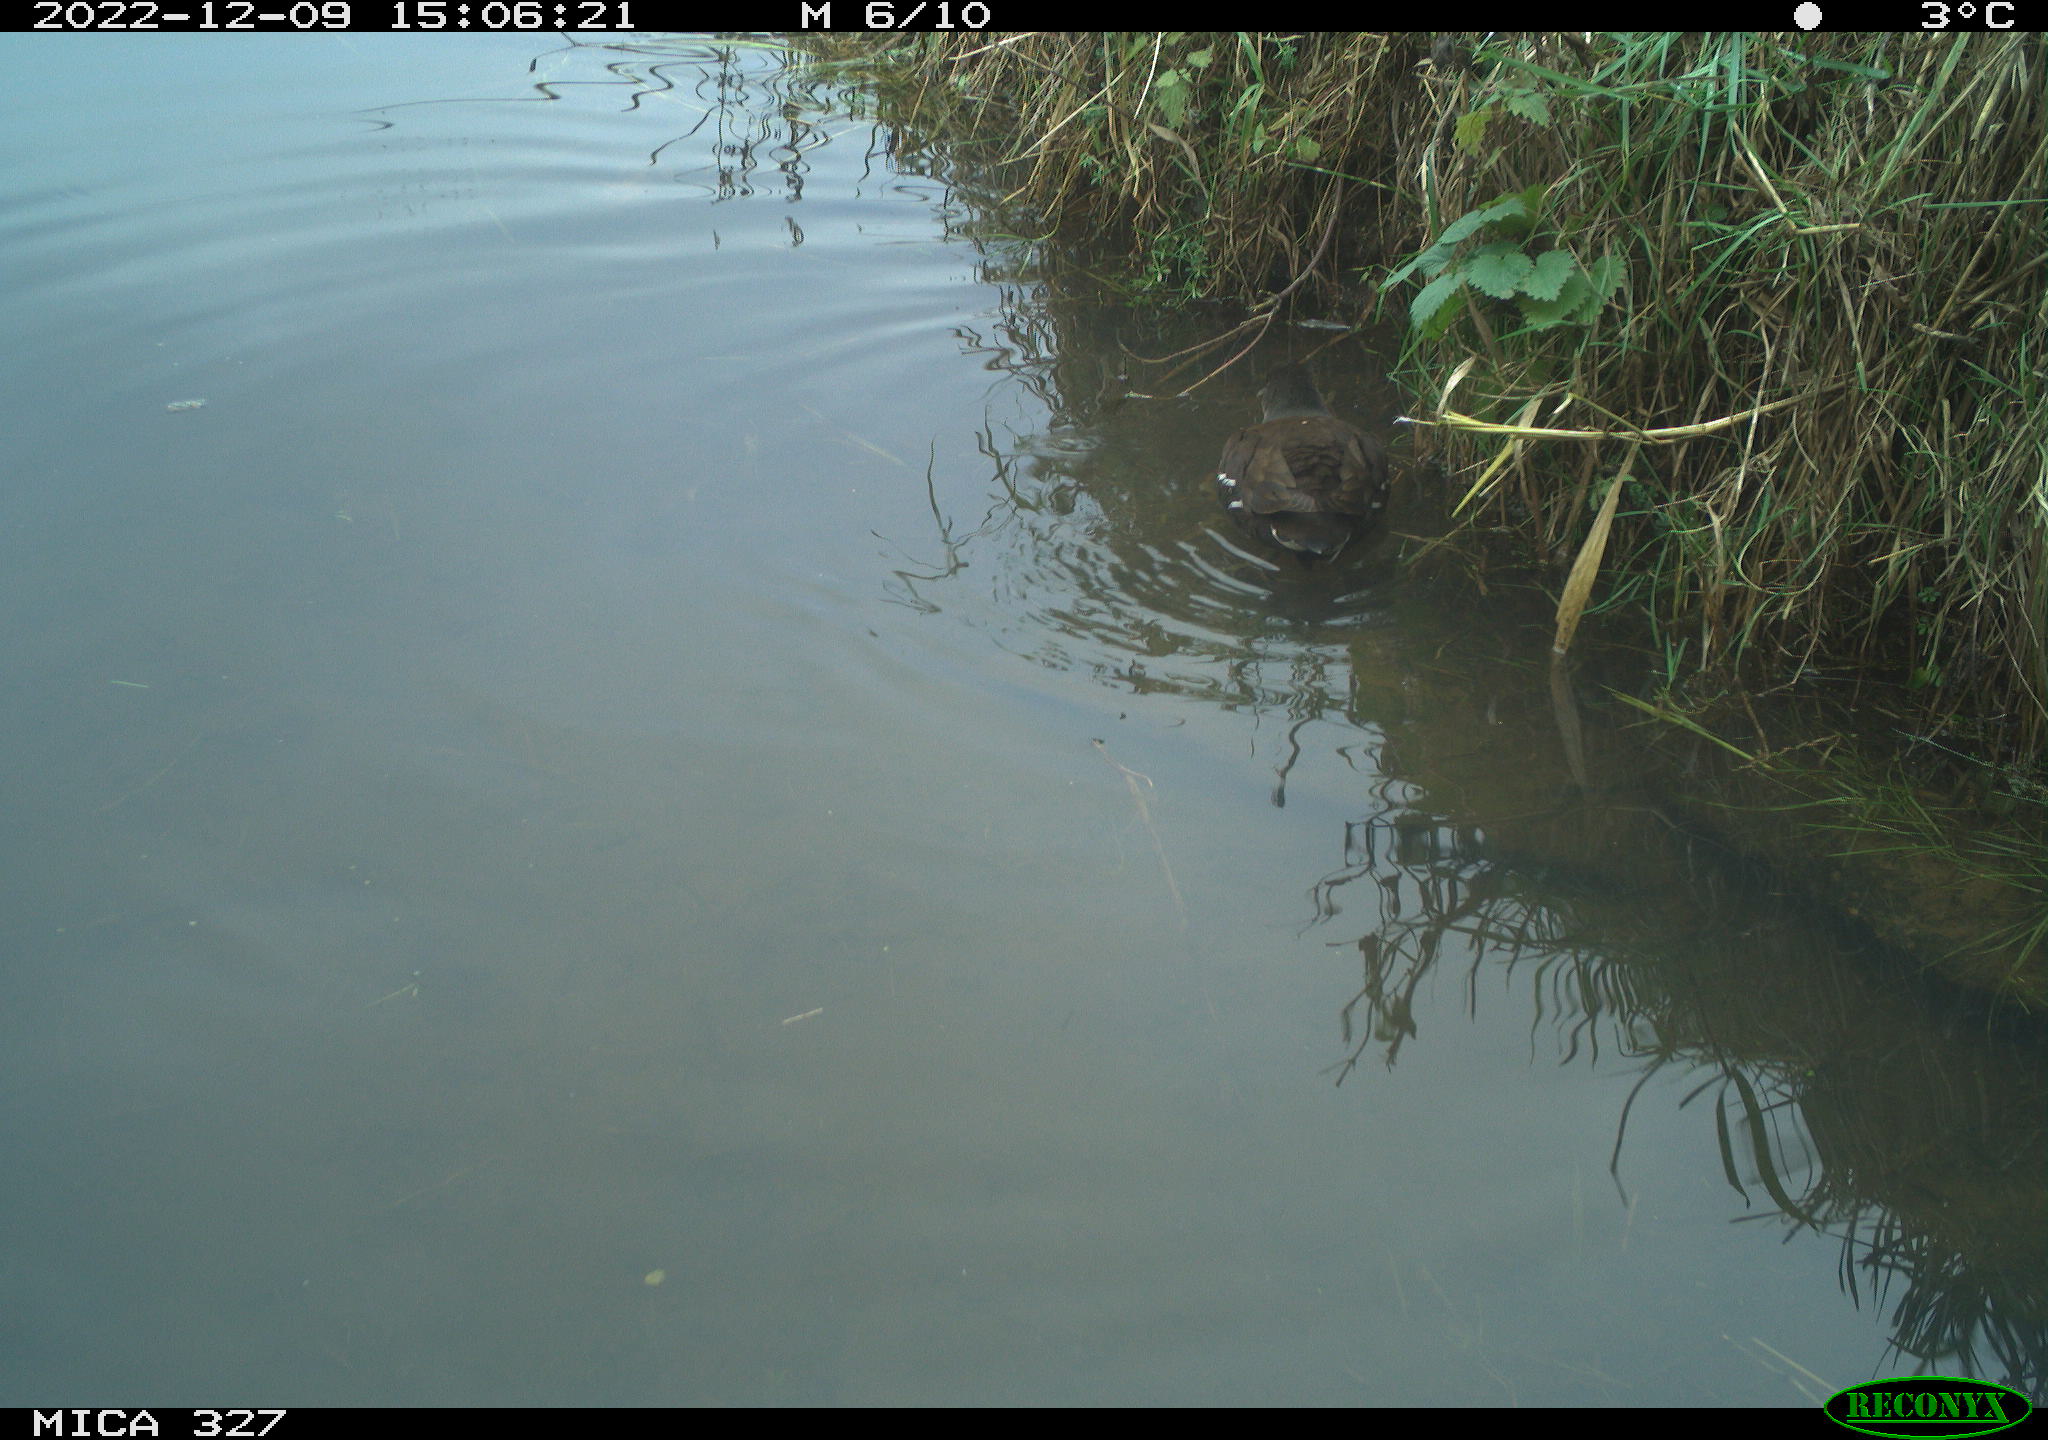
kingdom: Animalia
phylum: Chordata
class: Aves
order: Gruiformes
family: Rallidae
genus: Gallinula
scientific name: Gallinula chloropus
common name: Common moorhen
